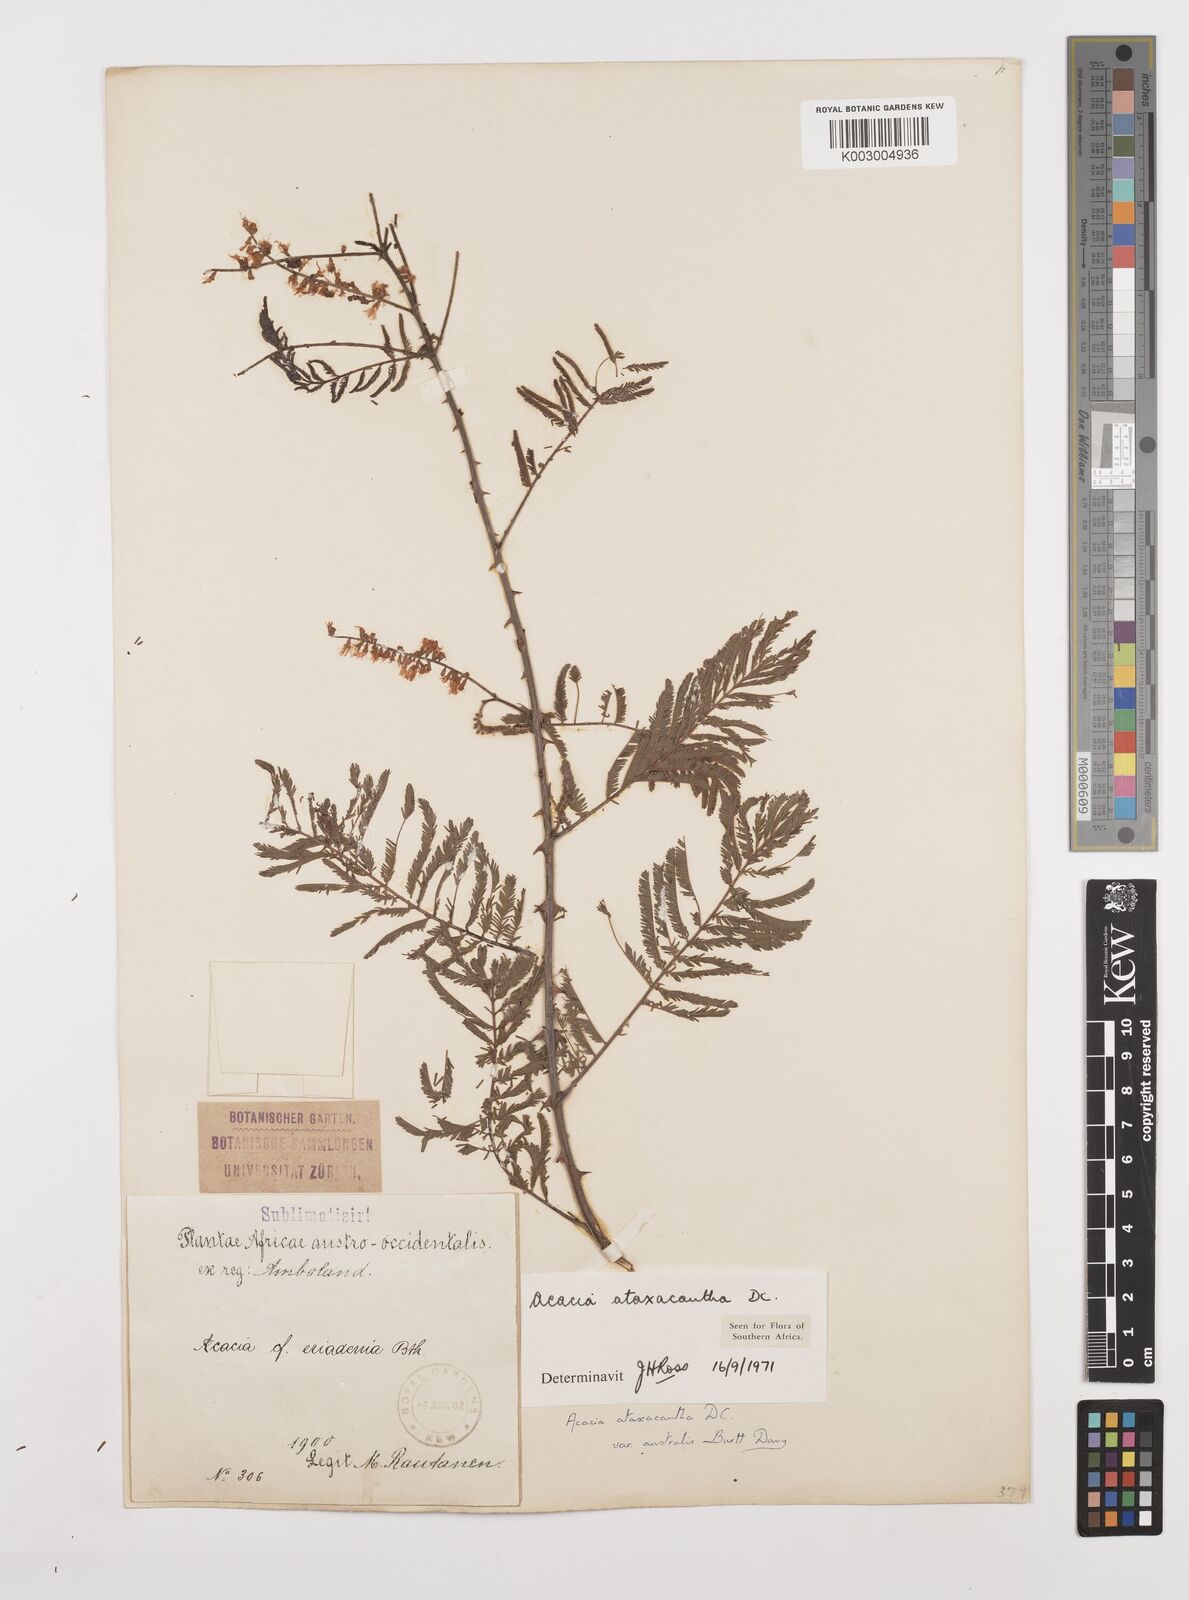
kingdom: Plantae
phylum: Tracheophyta
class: Magnoliopsida
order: Fabales
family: Fabaceae
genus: Senegalia
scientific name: Senegalia ataxacantha
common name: Flame acacia
